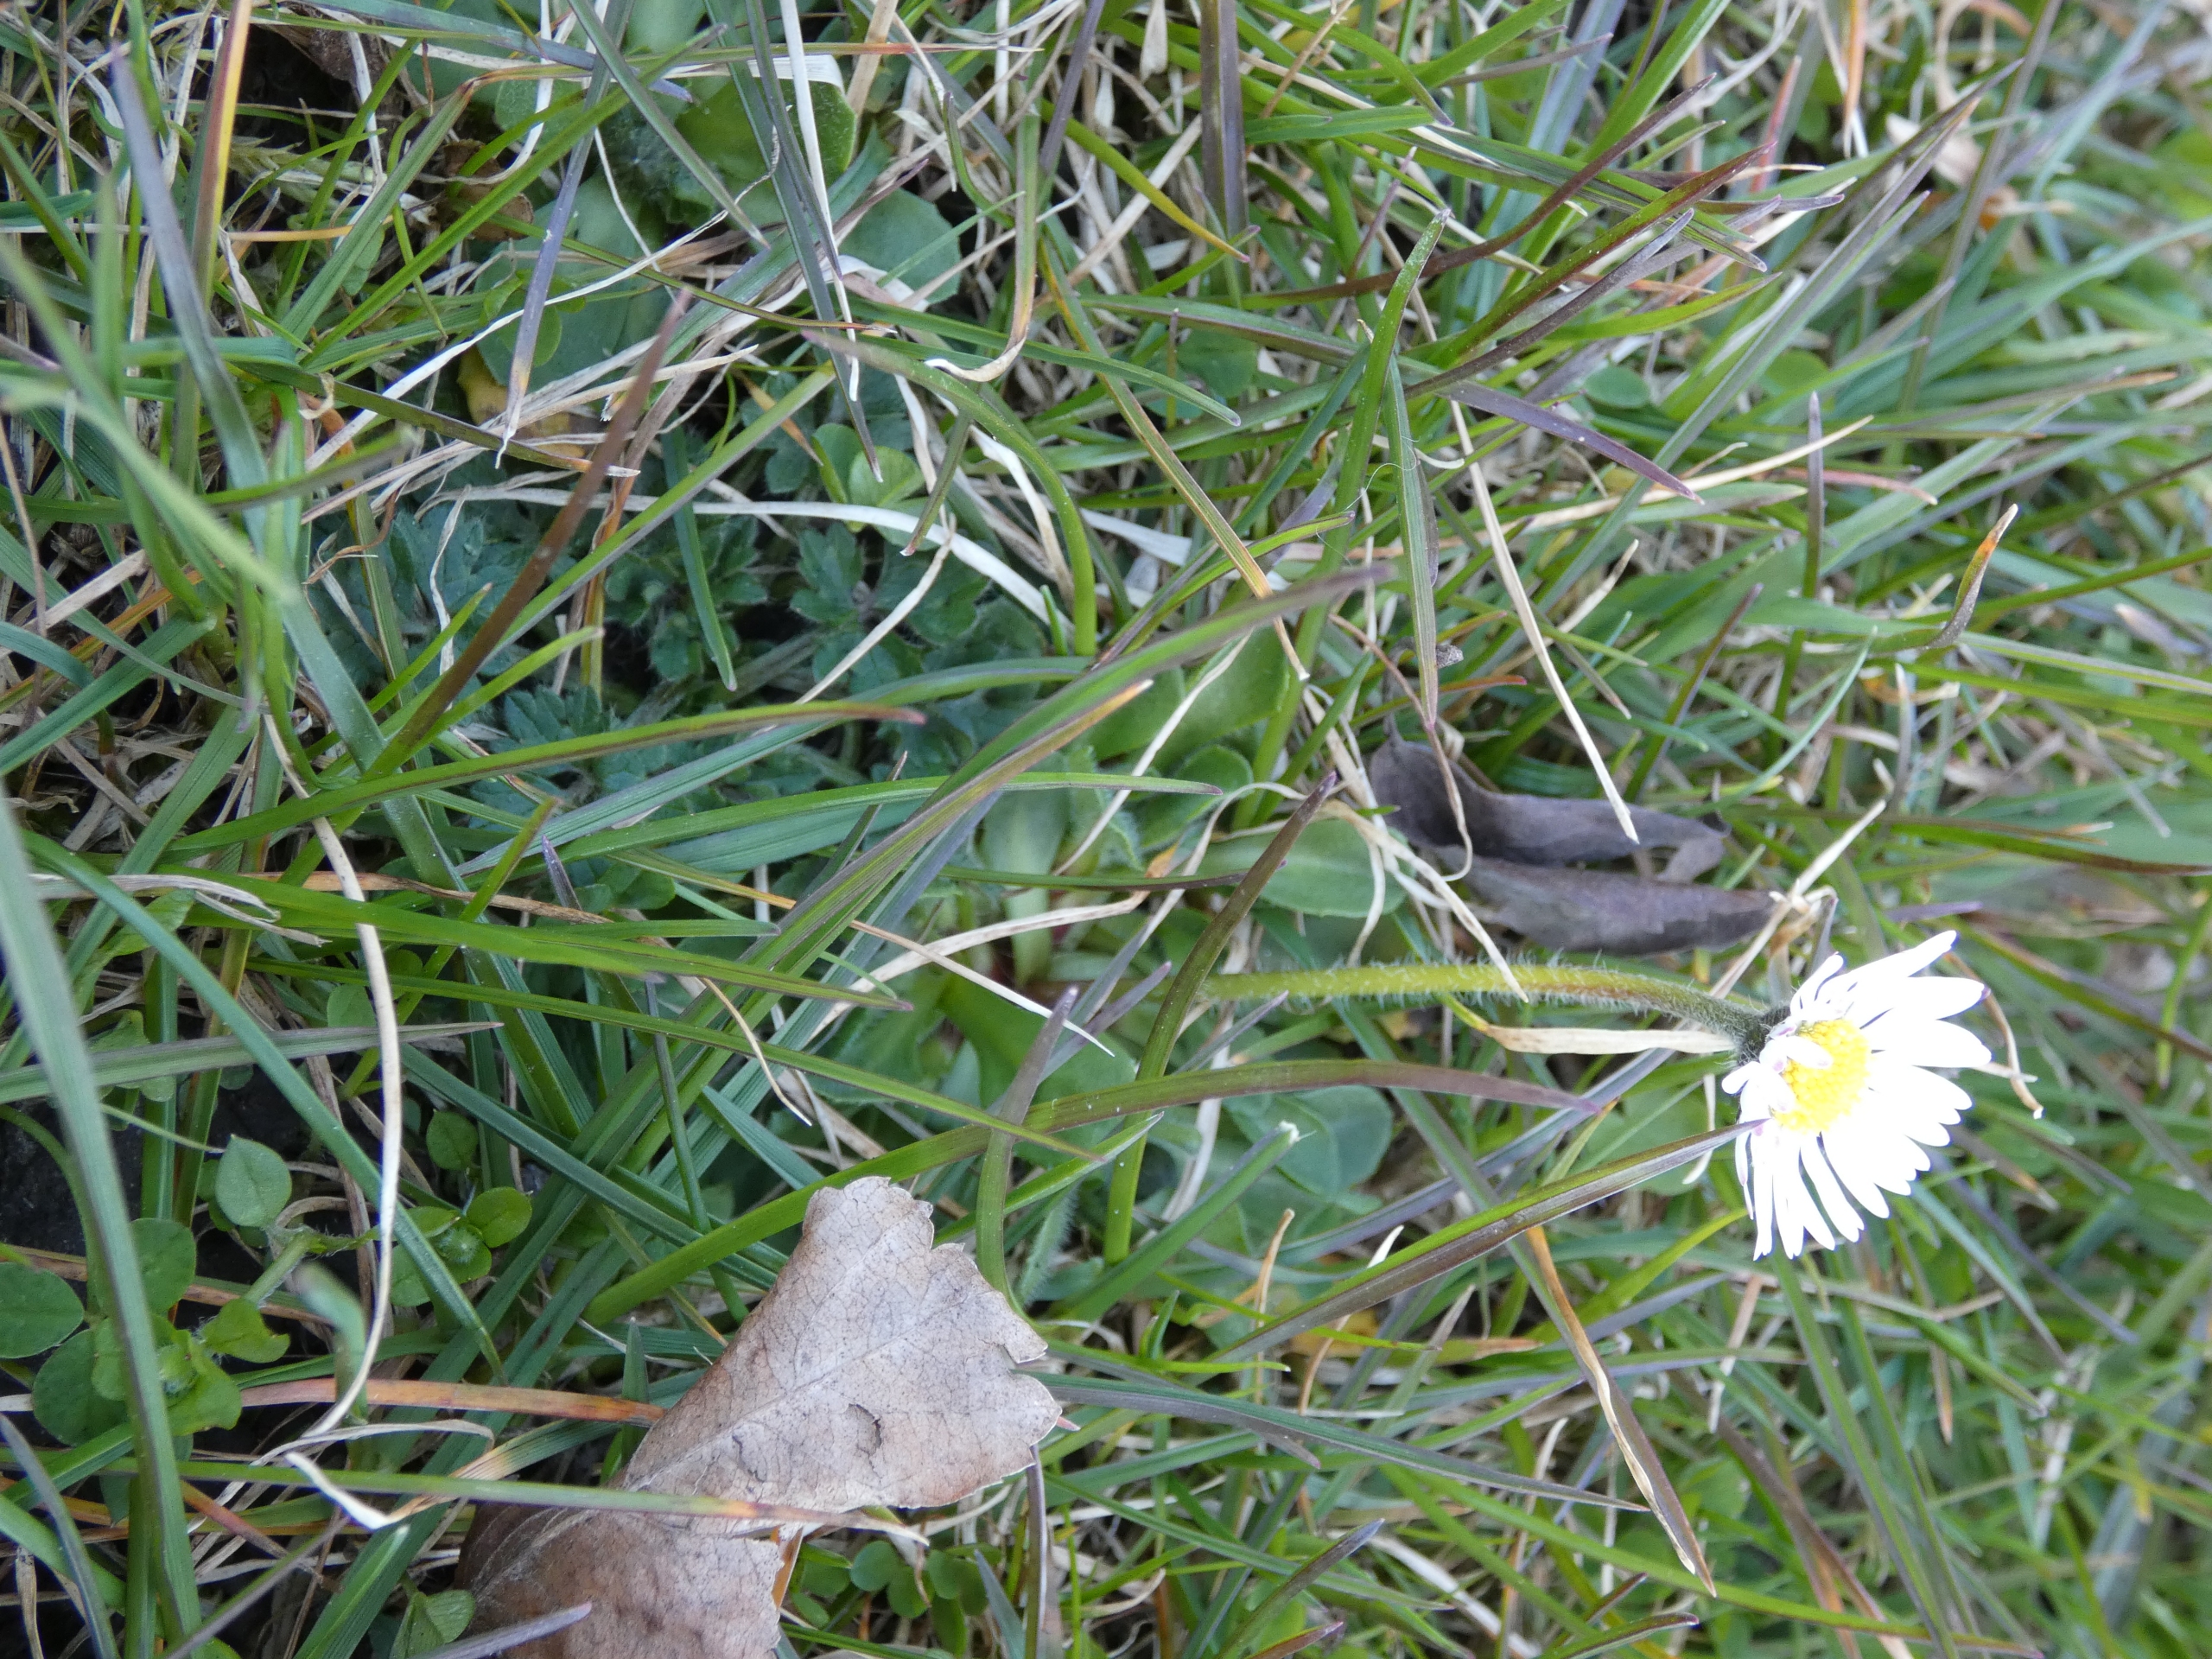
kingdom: Plantae
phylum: Tracheophyta
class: Magnoliopsida
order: Asterales
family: Asteraceae
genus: Bellis
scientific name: Bellis perennis
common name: Tusindfryd
